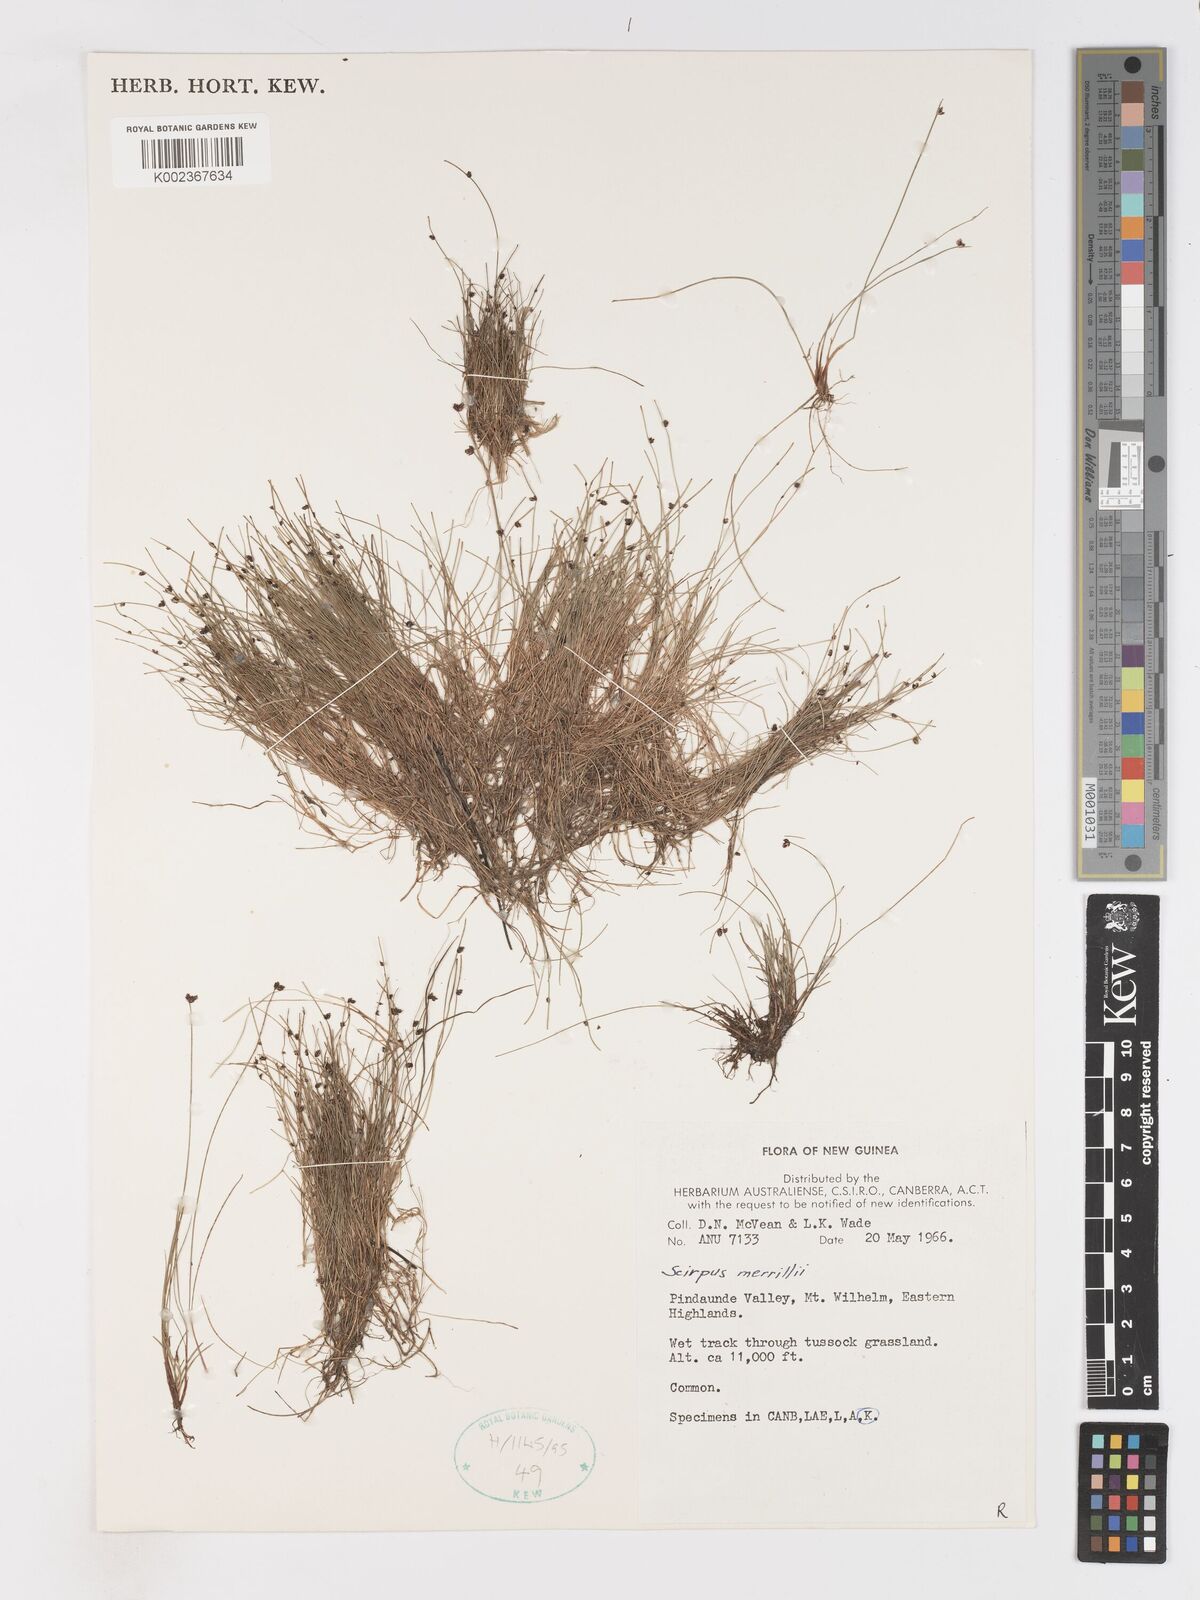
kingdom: Plantae
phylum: Tracheophyta
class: Liliopsida
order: Poales
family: Cyperaceae
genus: Isolepis
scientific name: Isolepis habra
